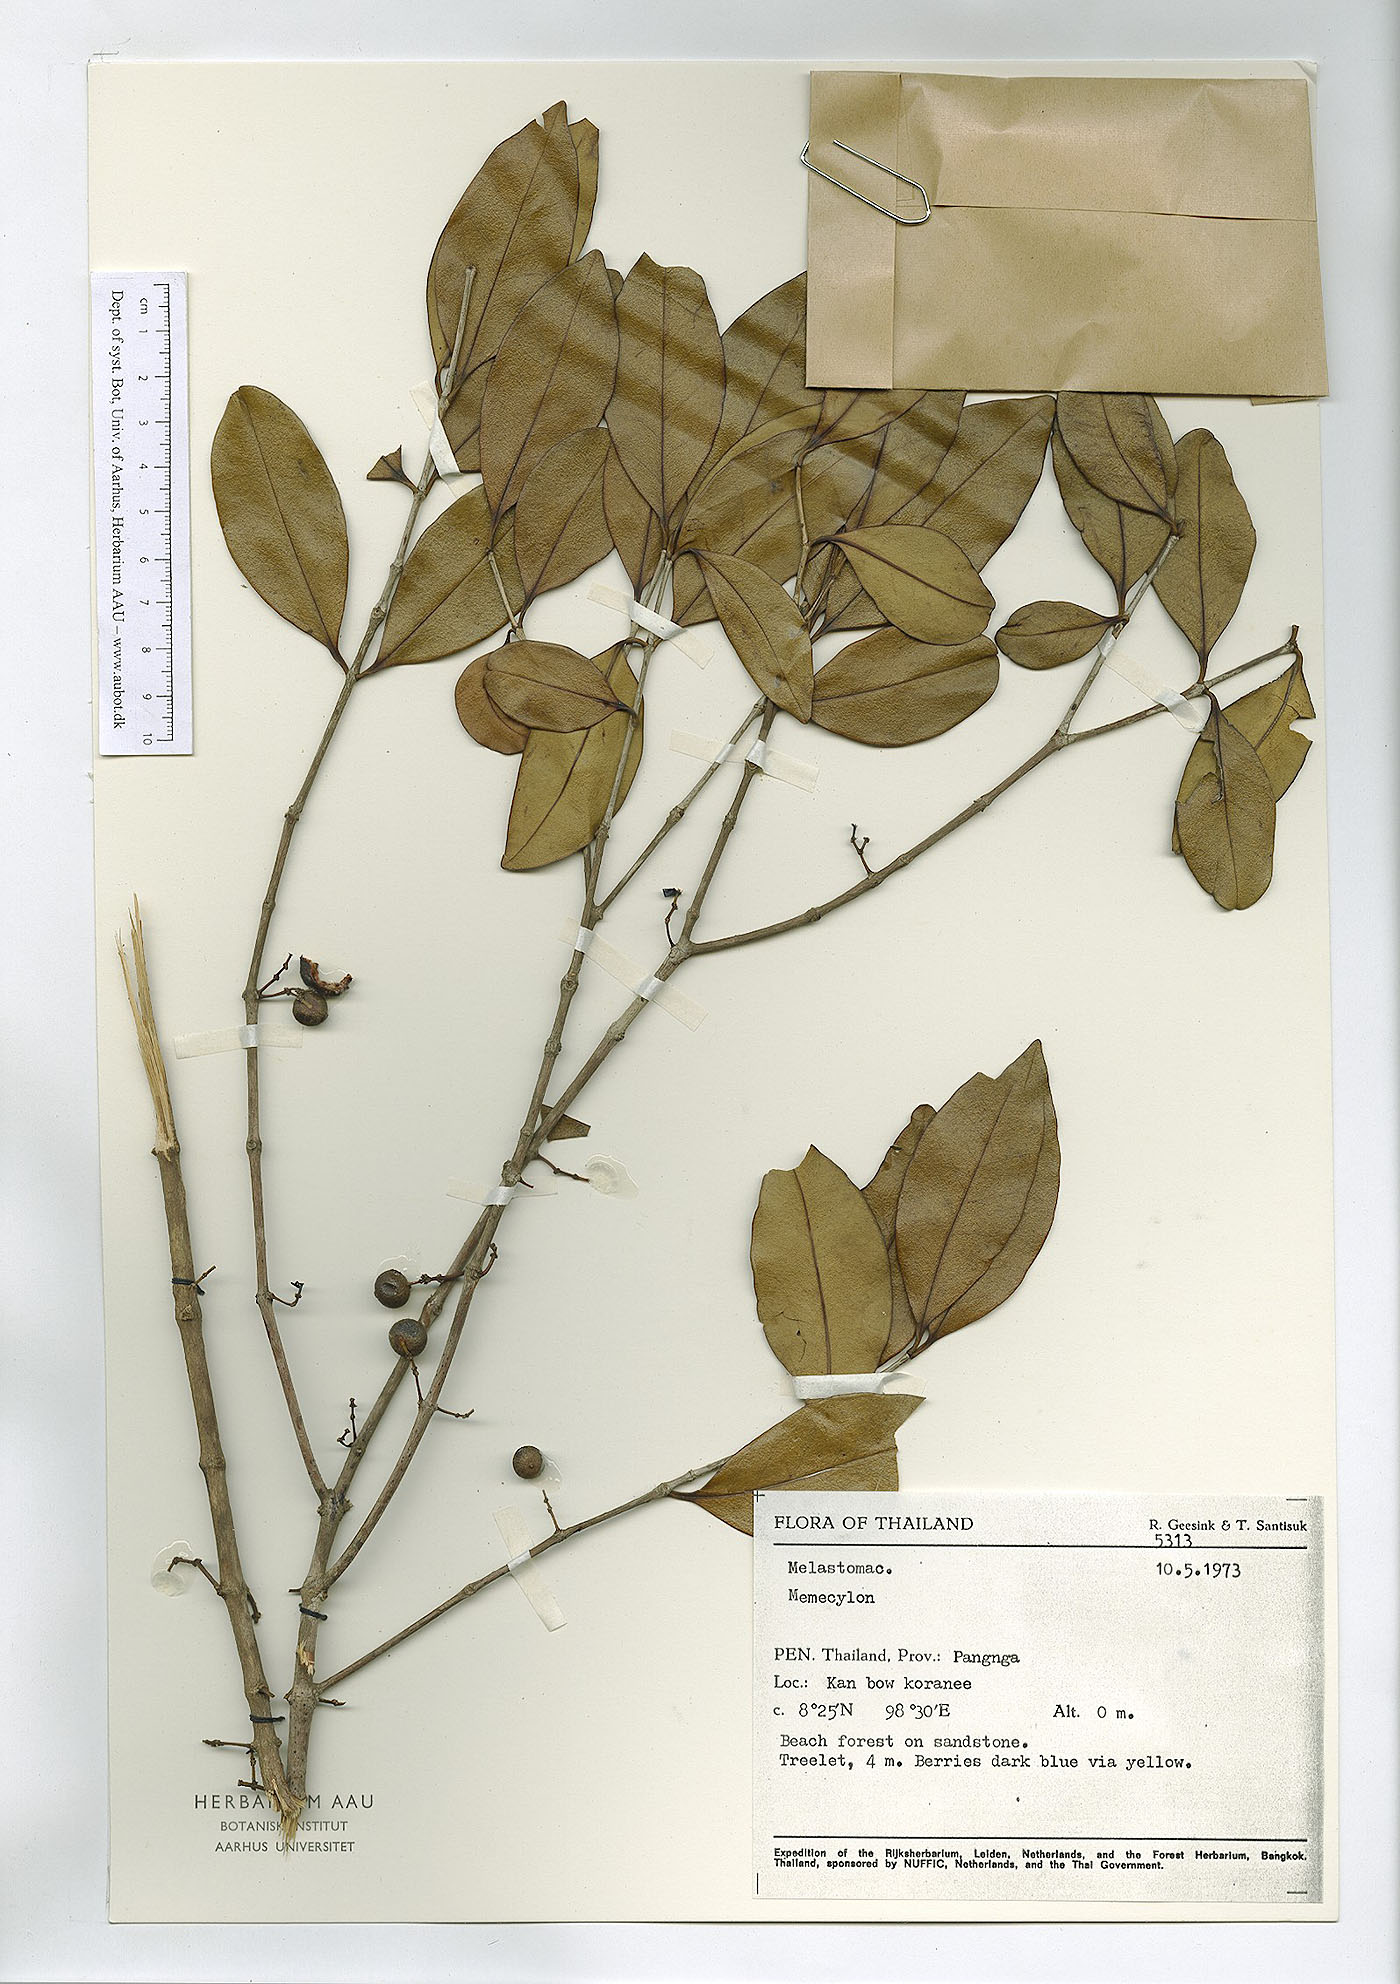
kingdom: Plantae
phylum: Tracheophyta
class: Magnoliopsida
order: Myrtales
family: Melastomataceae
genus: Memecylon
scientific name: Memecylon edule
